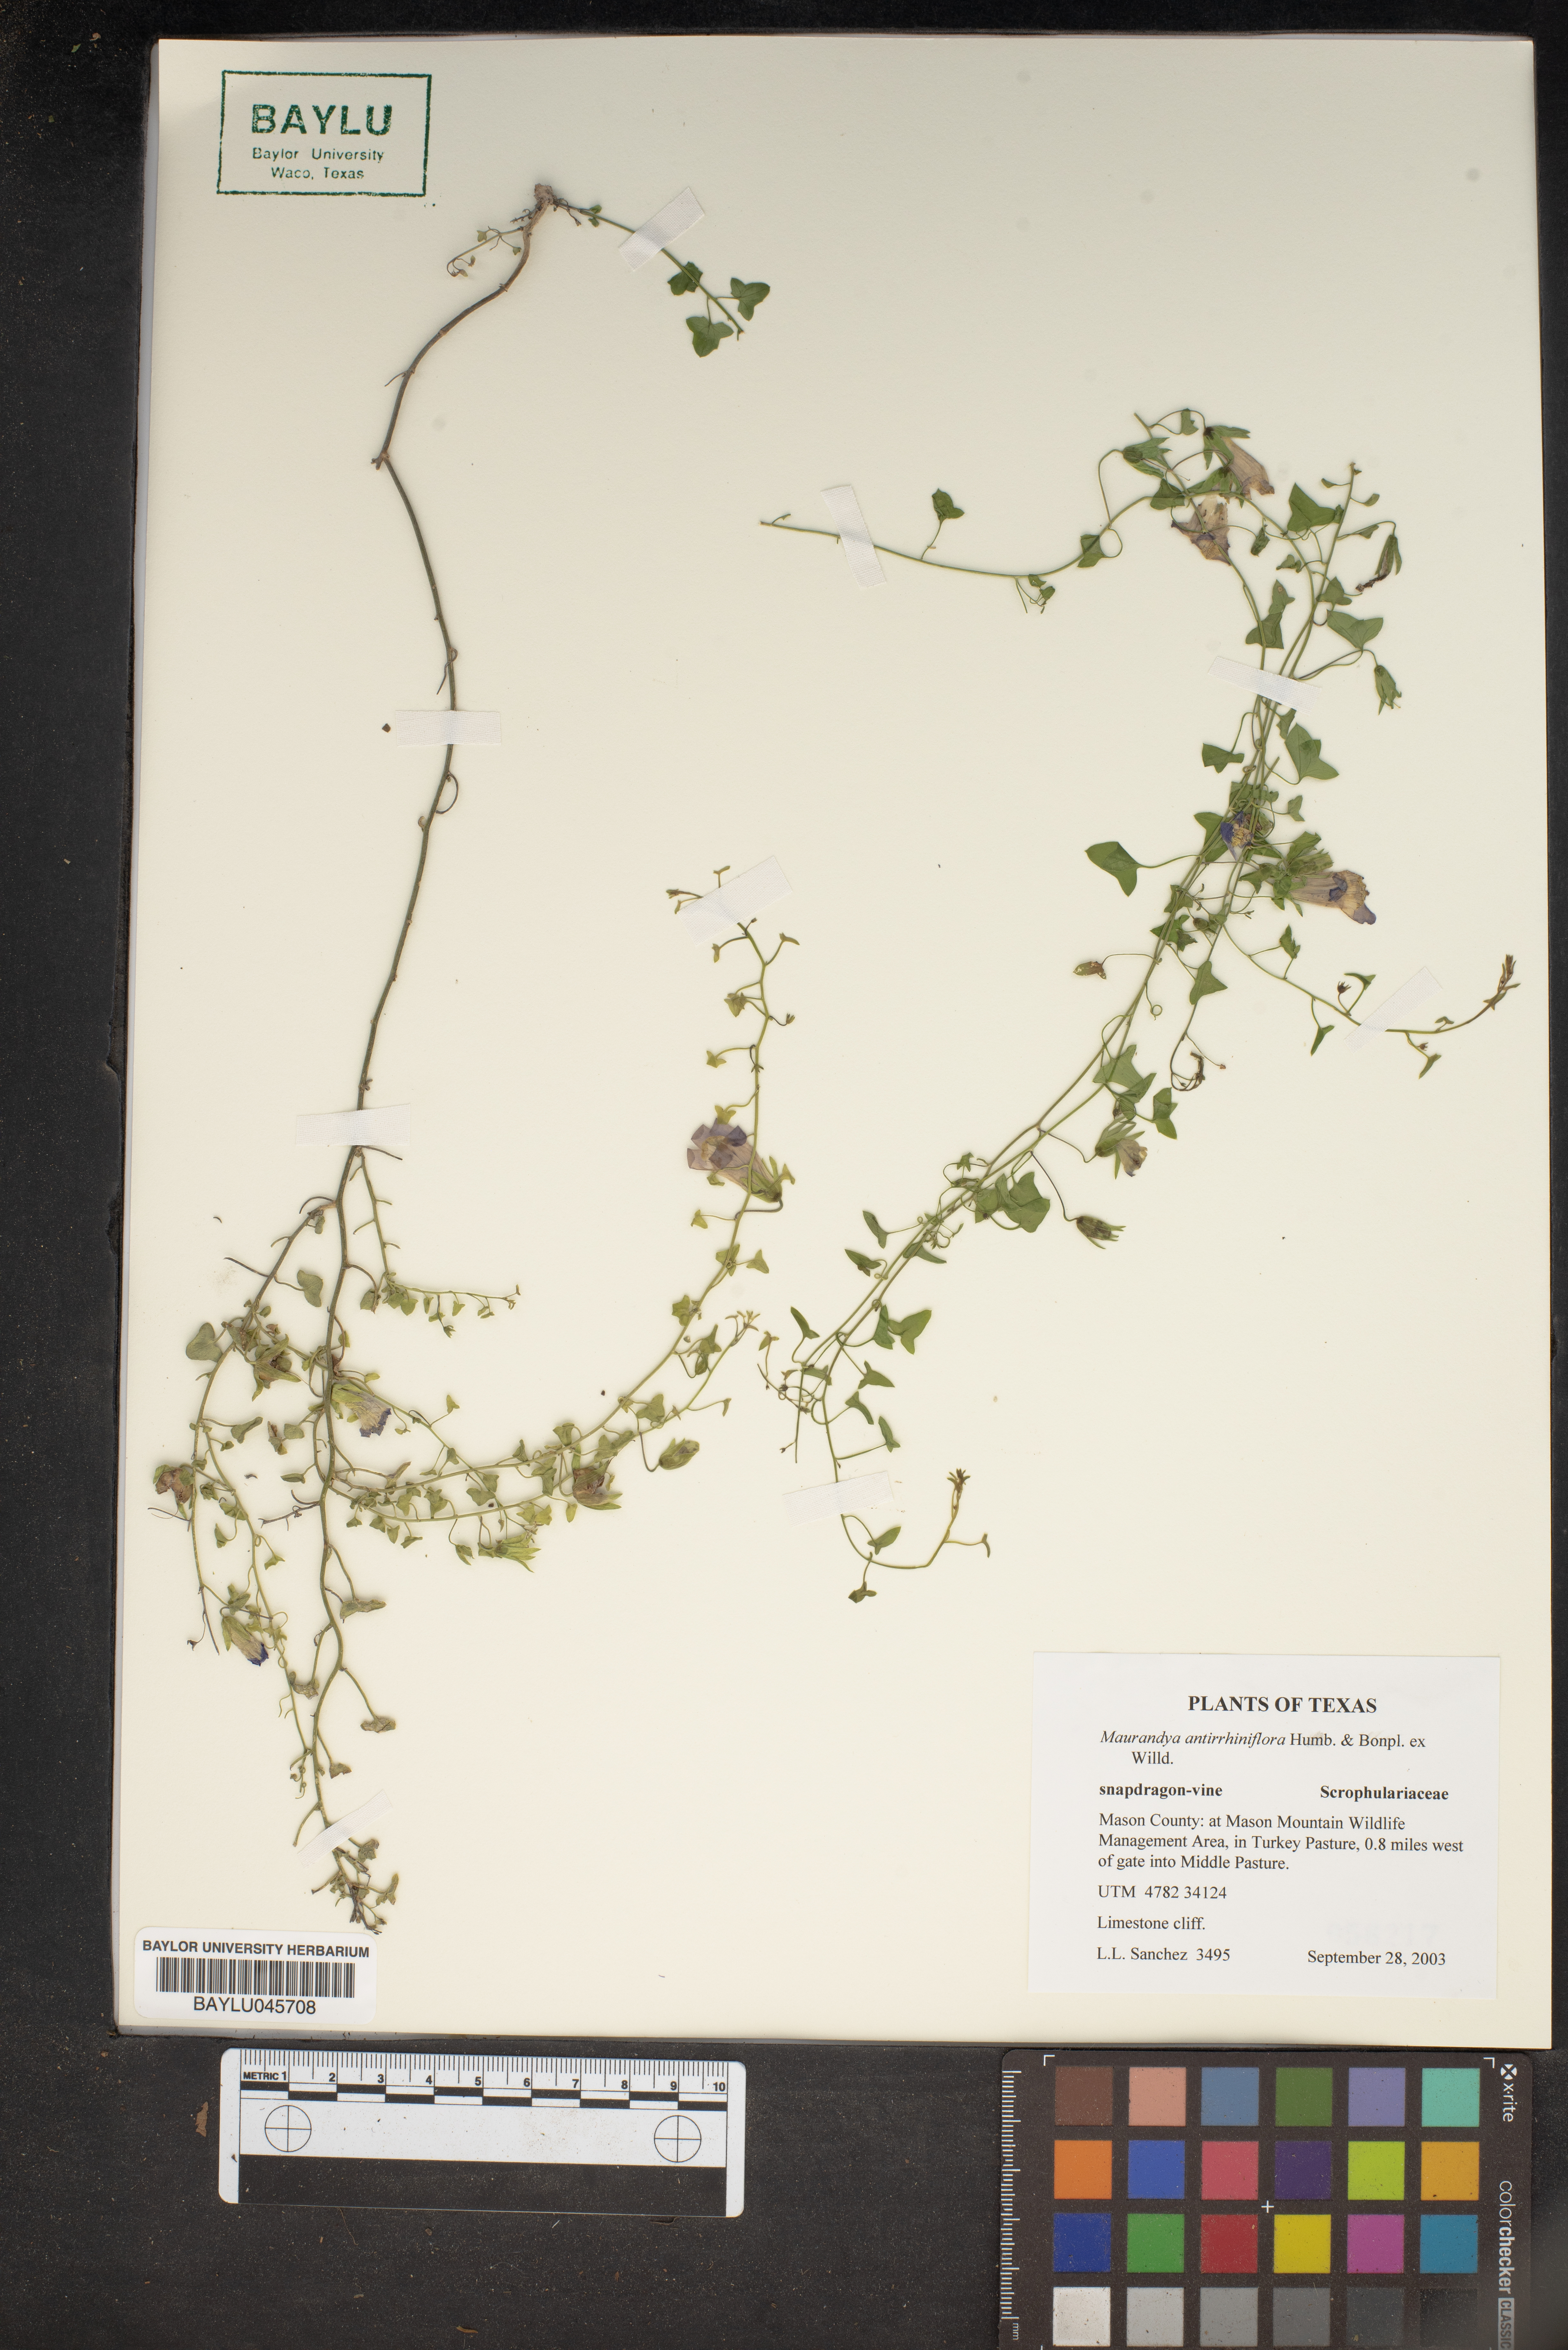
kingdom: Plantae
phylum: Tracheophyta
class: Magnoliopsida
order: Lamiales
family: Plantaginaceae
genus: Maurandella
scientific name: Maurandella antirrhiniflora
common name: Violet twining-snapdragon
